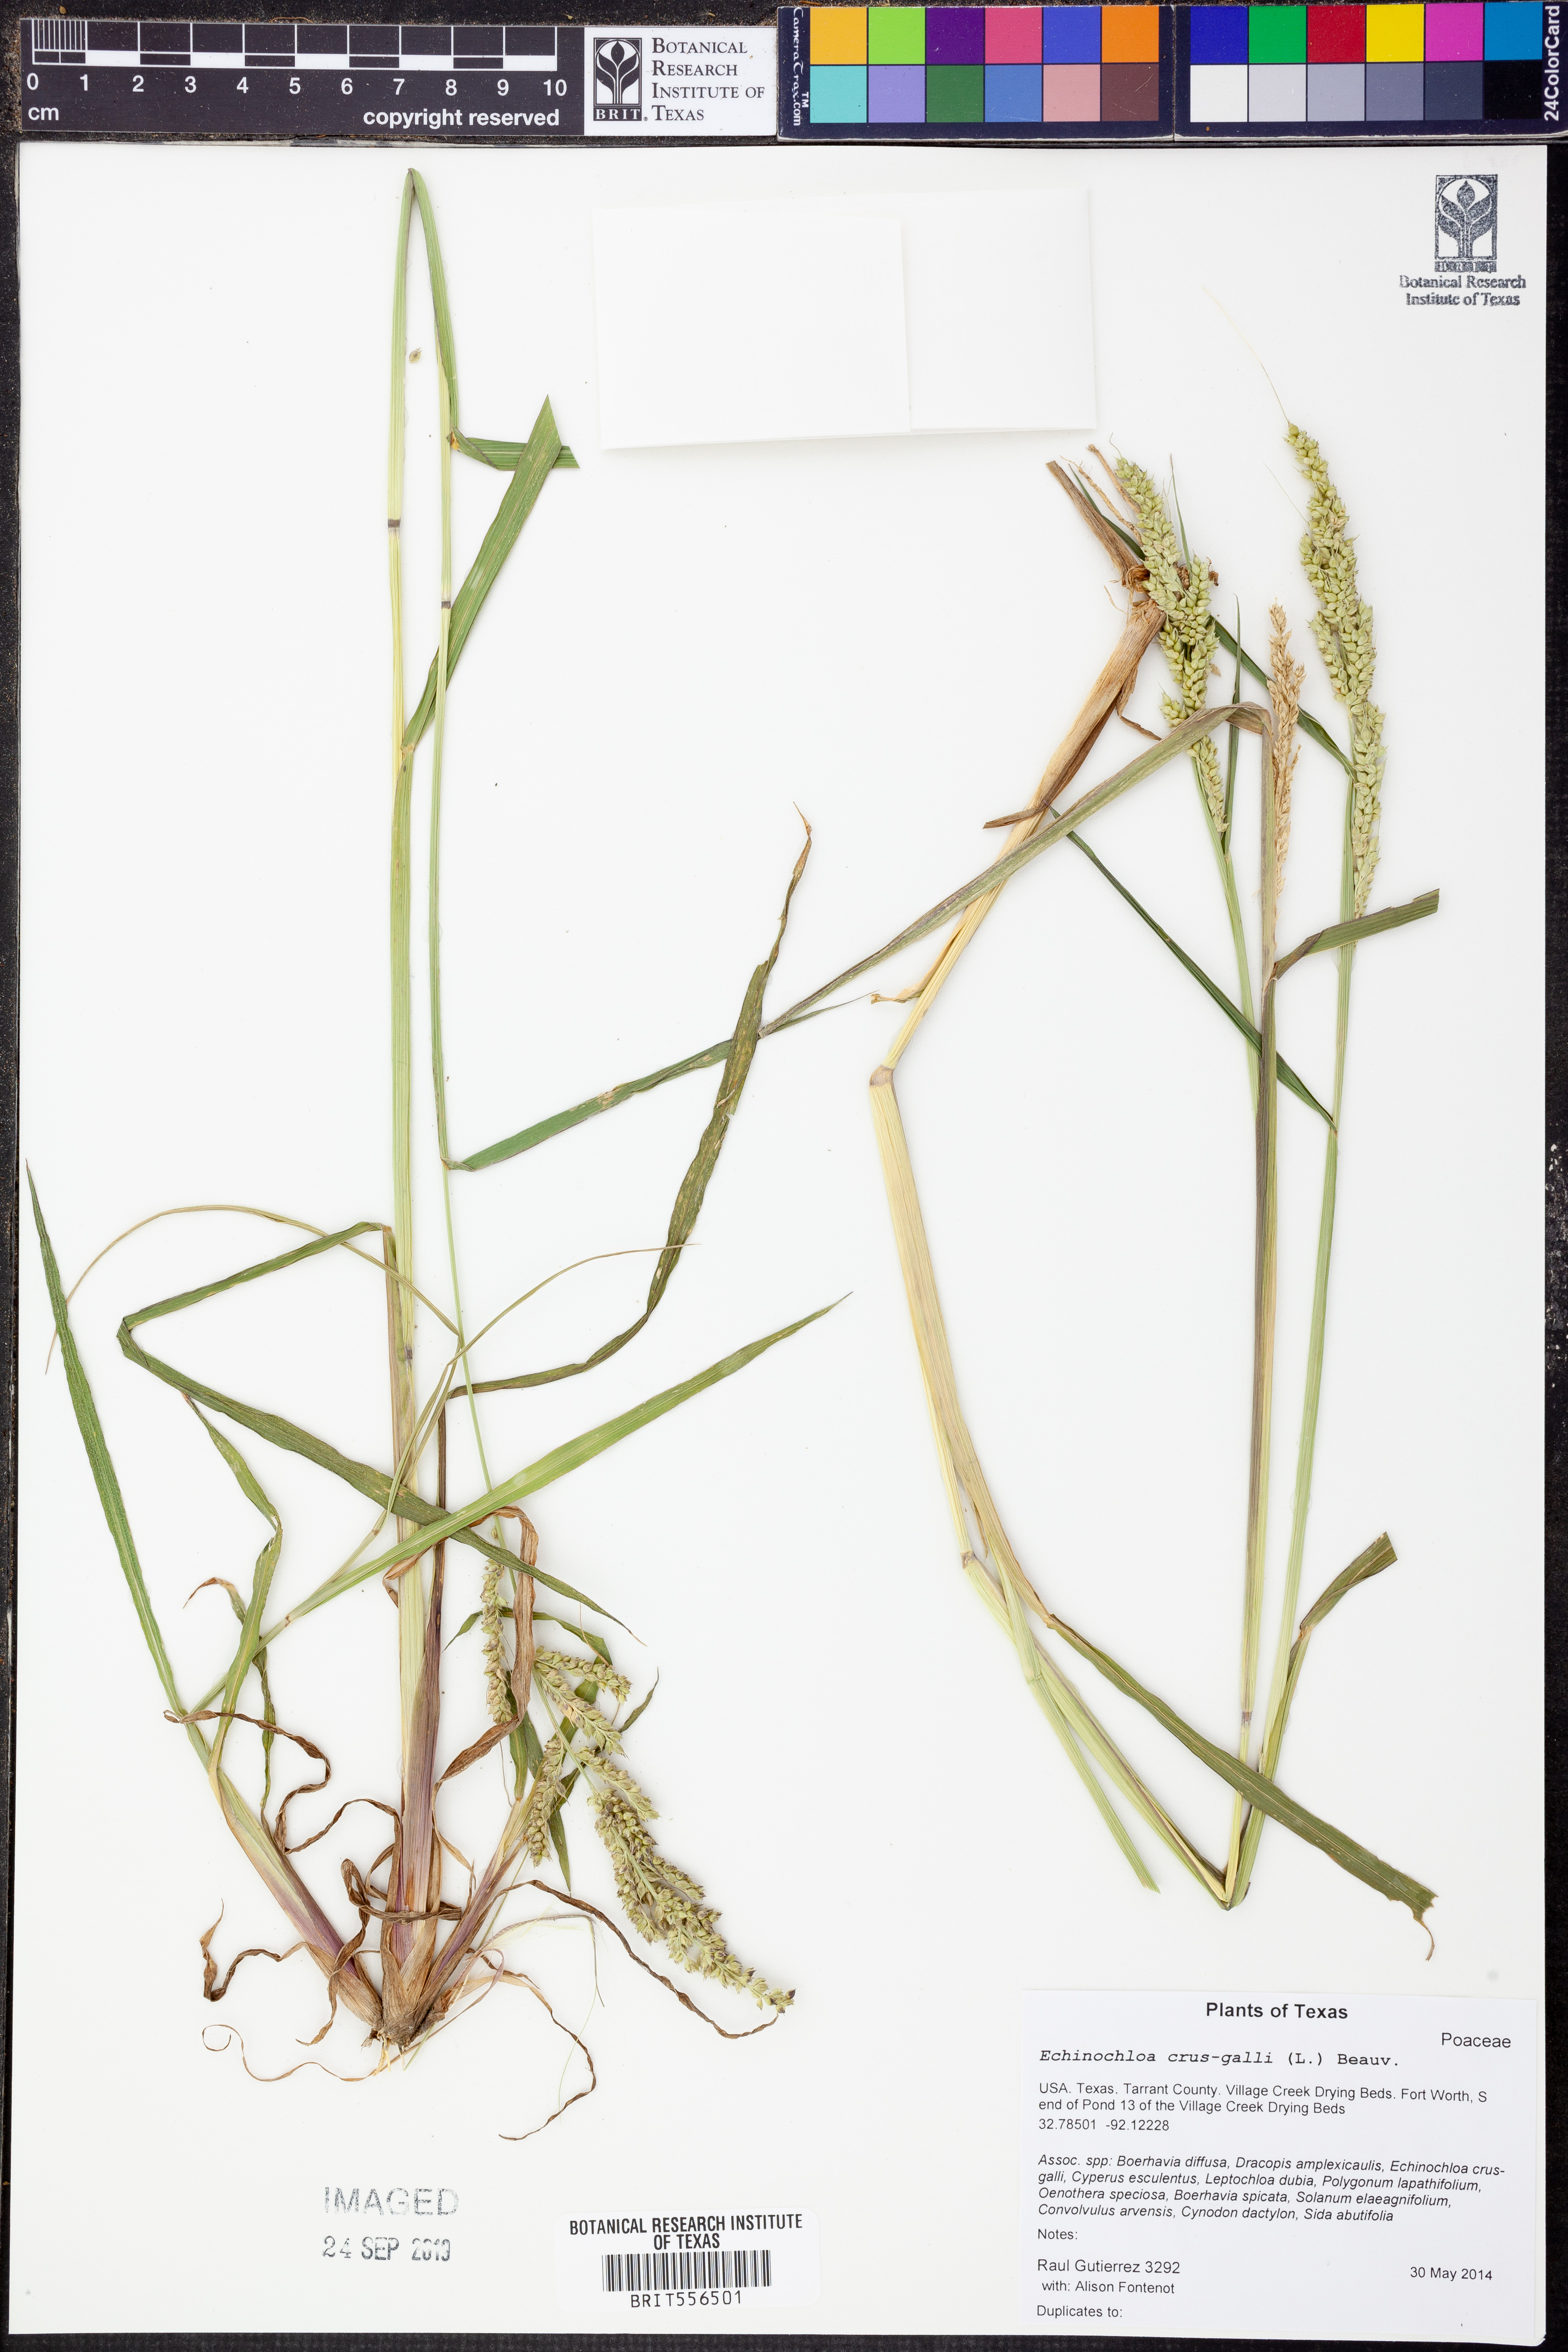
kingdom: Plantae
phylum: Tracheophyta
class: Liliopsida
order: Poales
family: Poaceae
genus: Echinochloa
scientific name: Echinochloa crus-galli
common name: Cockspur
